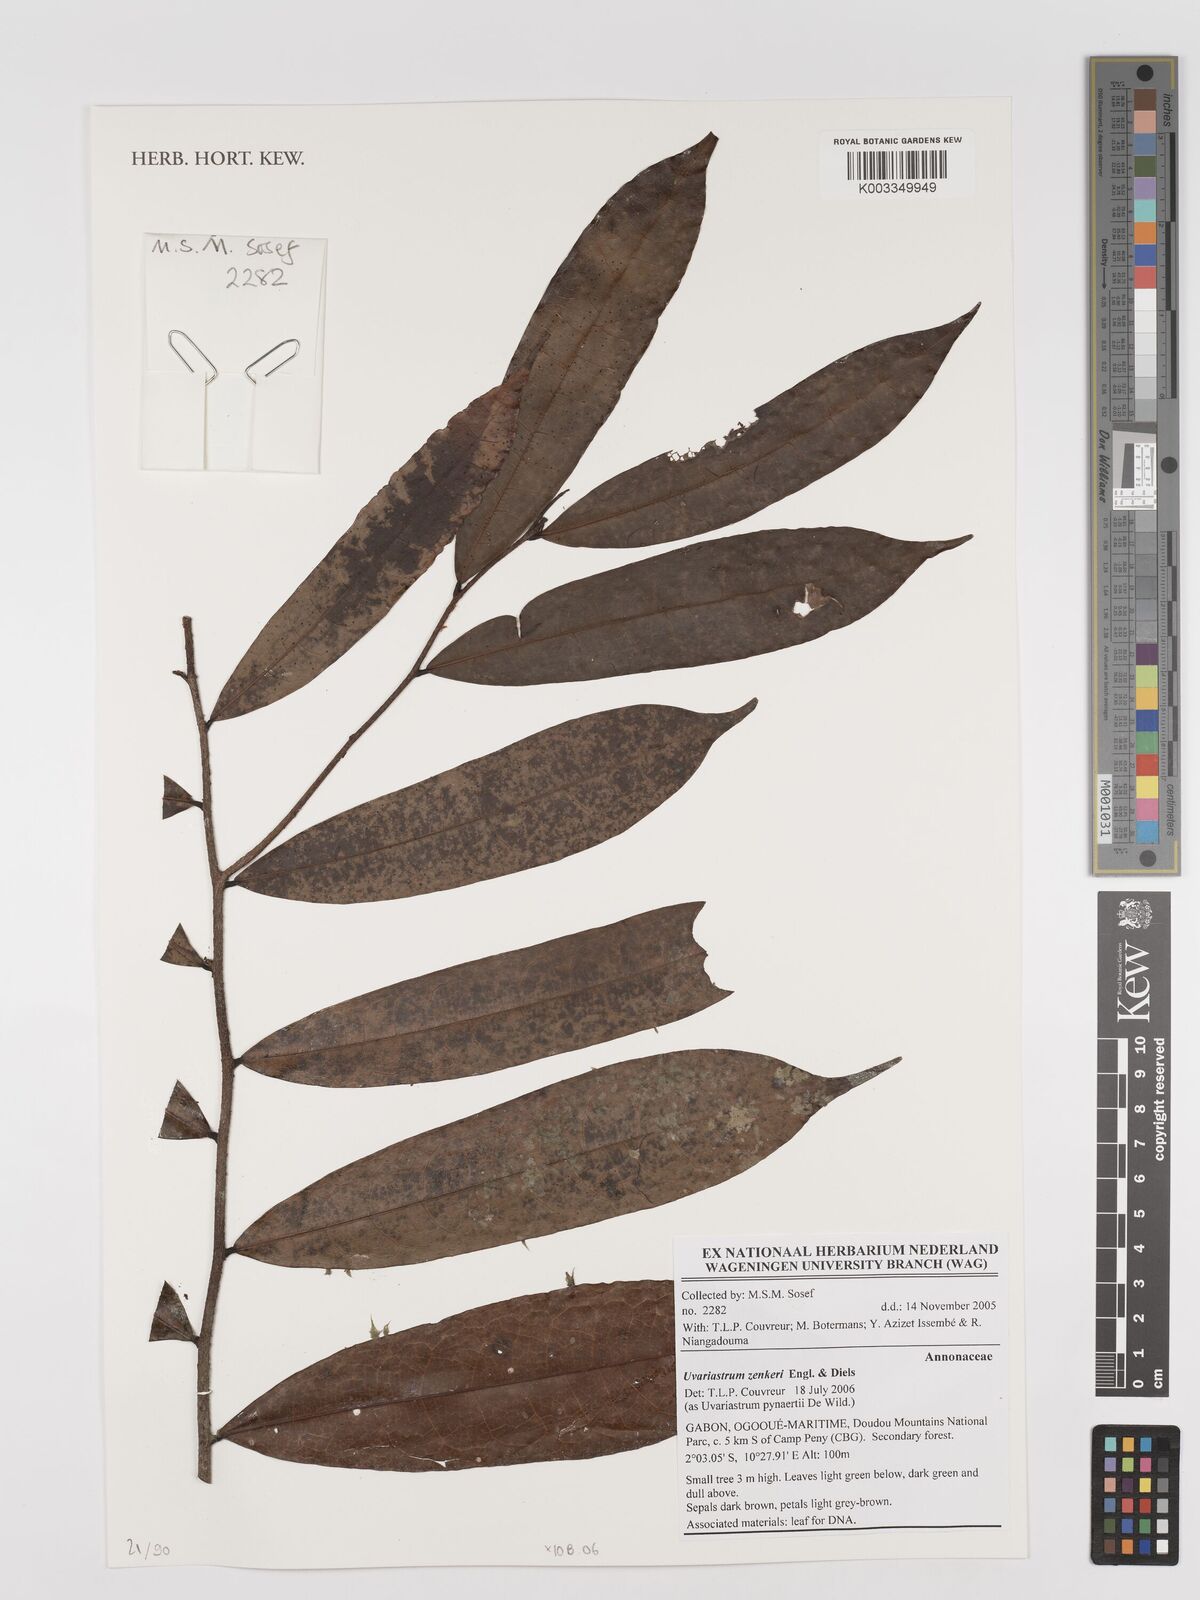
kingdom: Plantae
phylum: Tracheophyta
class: Magnoliopsida
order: Magnoliales
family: Annonaceae
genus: Uvariastrum
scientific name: Uvariastrum zenkeri
